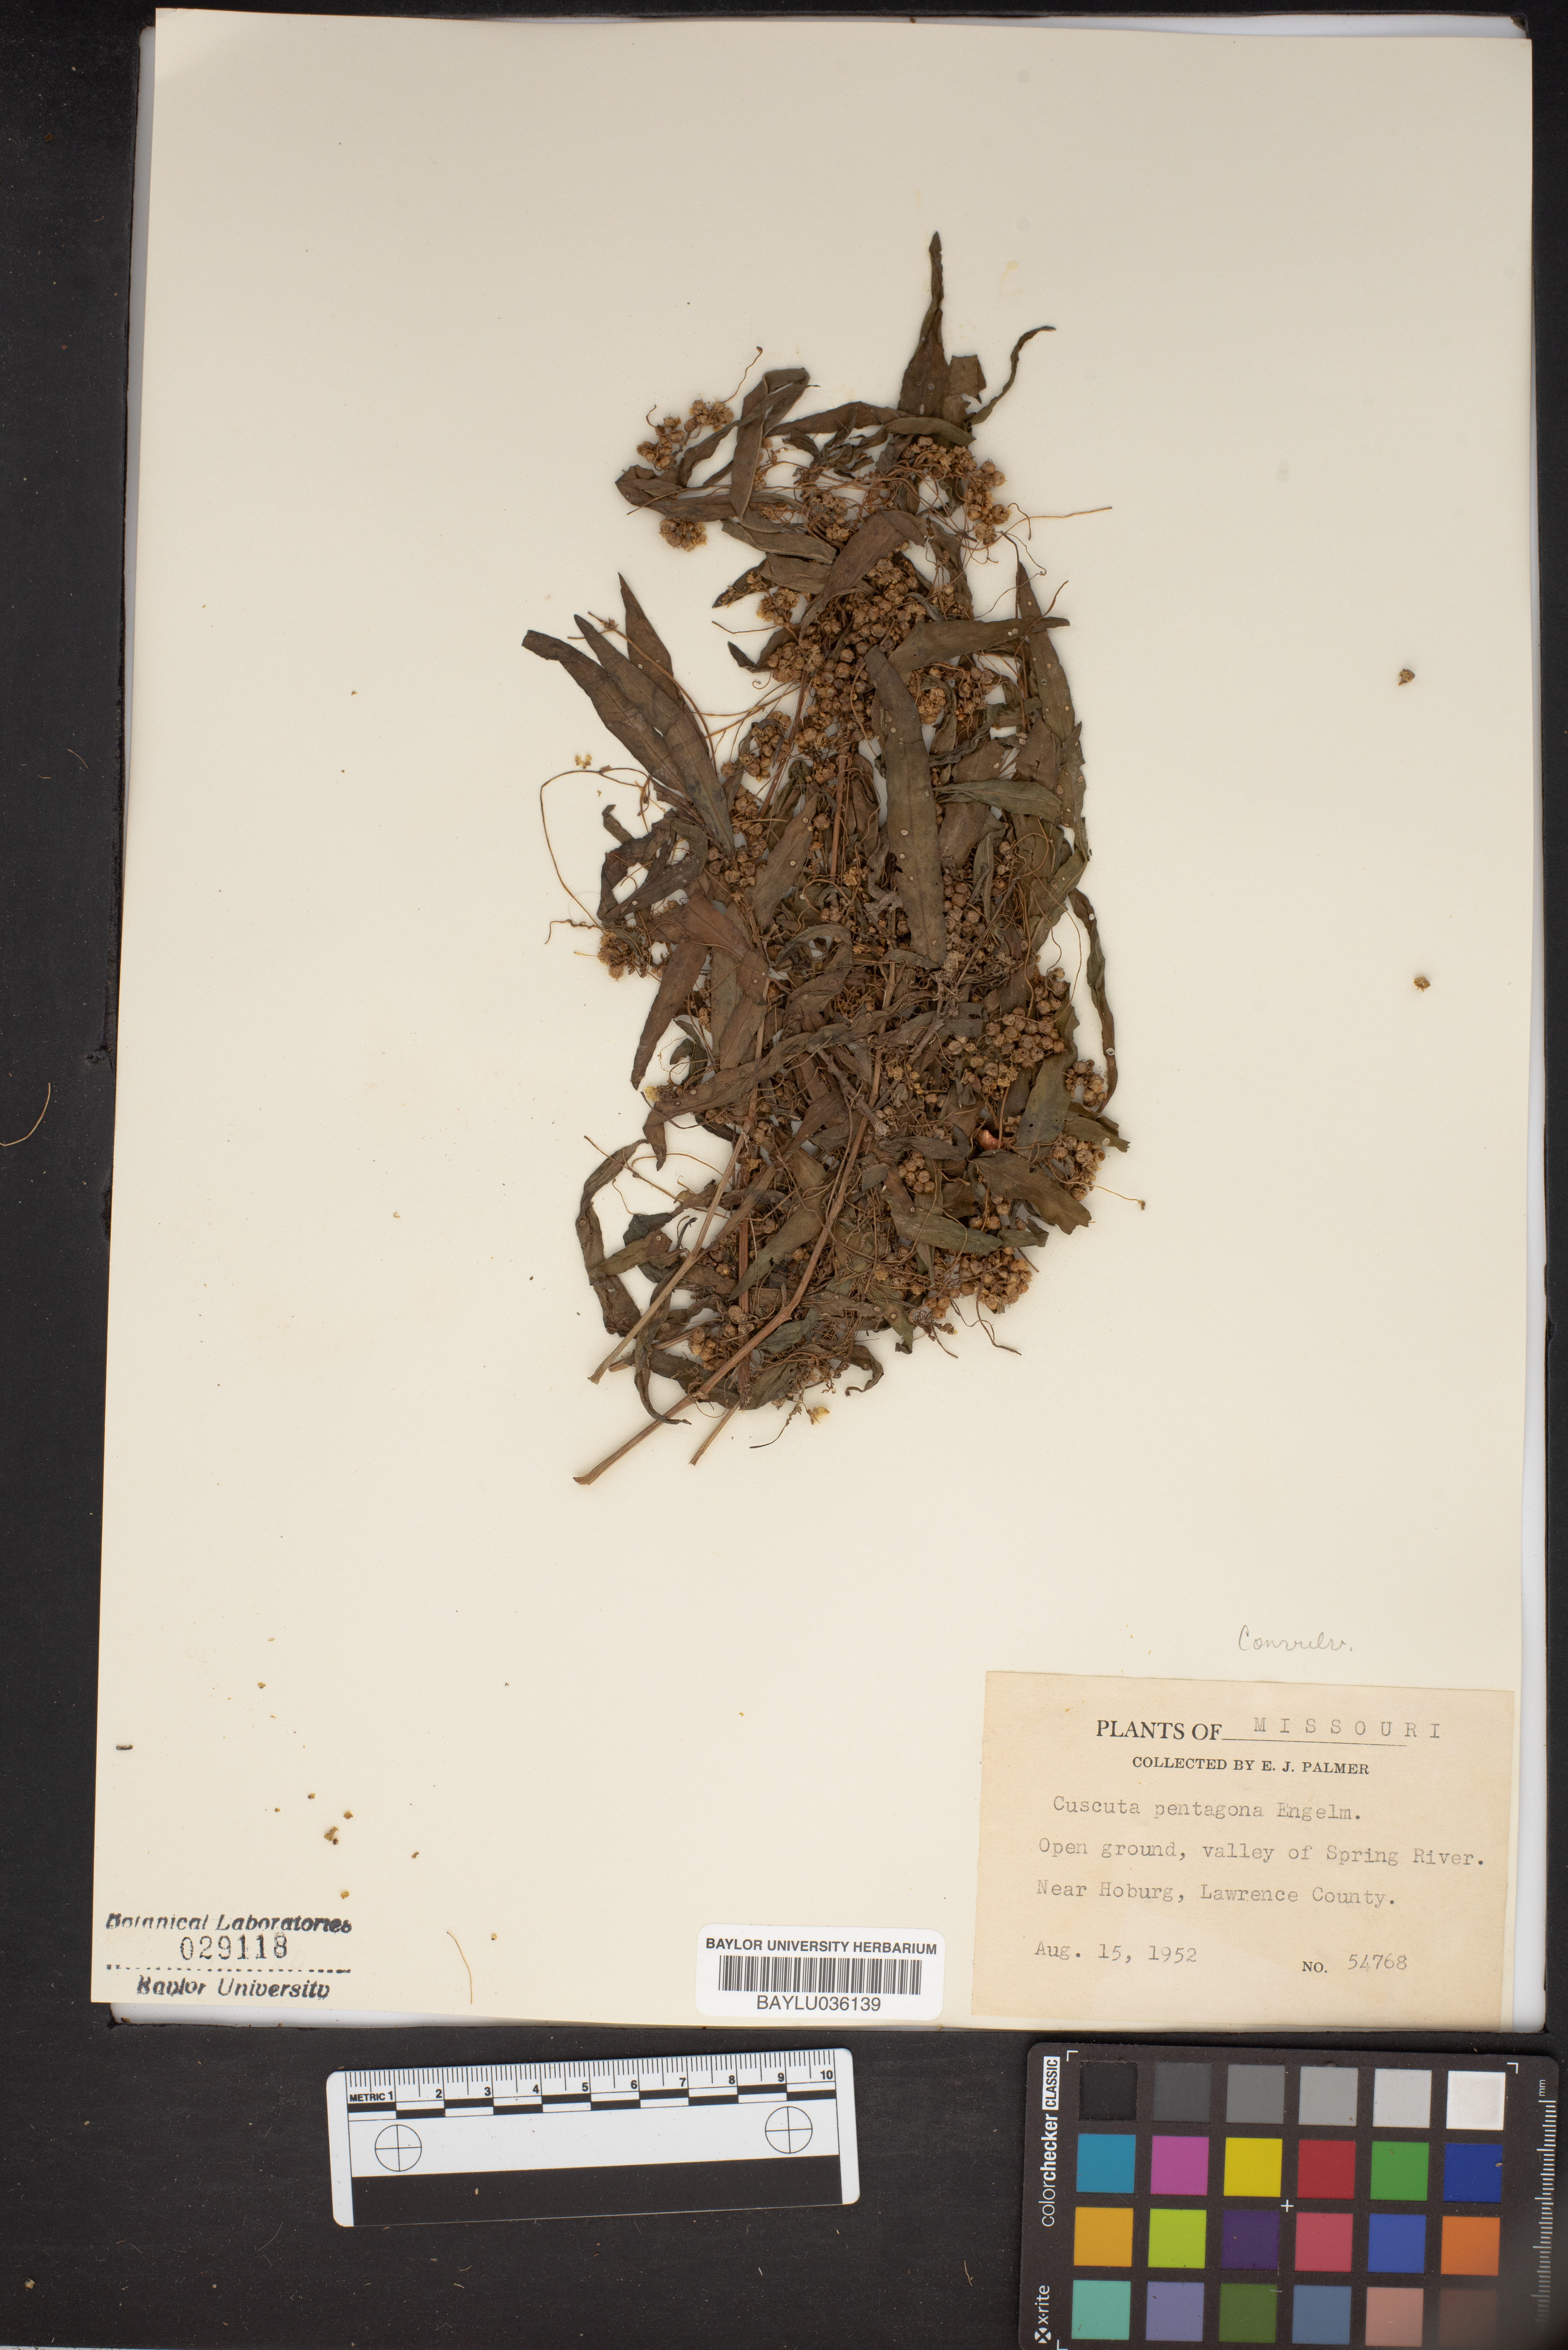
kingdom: Plantae
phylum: Tracheophyta
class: Magnoliopsida
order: Solanales
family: Convolvulaceae
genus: Cuscuta
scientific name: Cuscuta pentagona
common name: Fiveangled dodder
